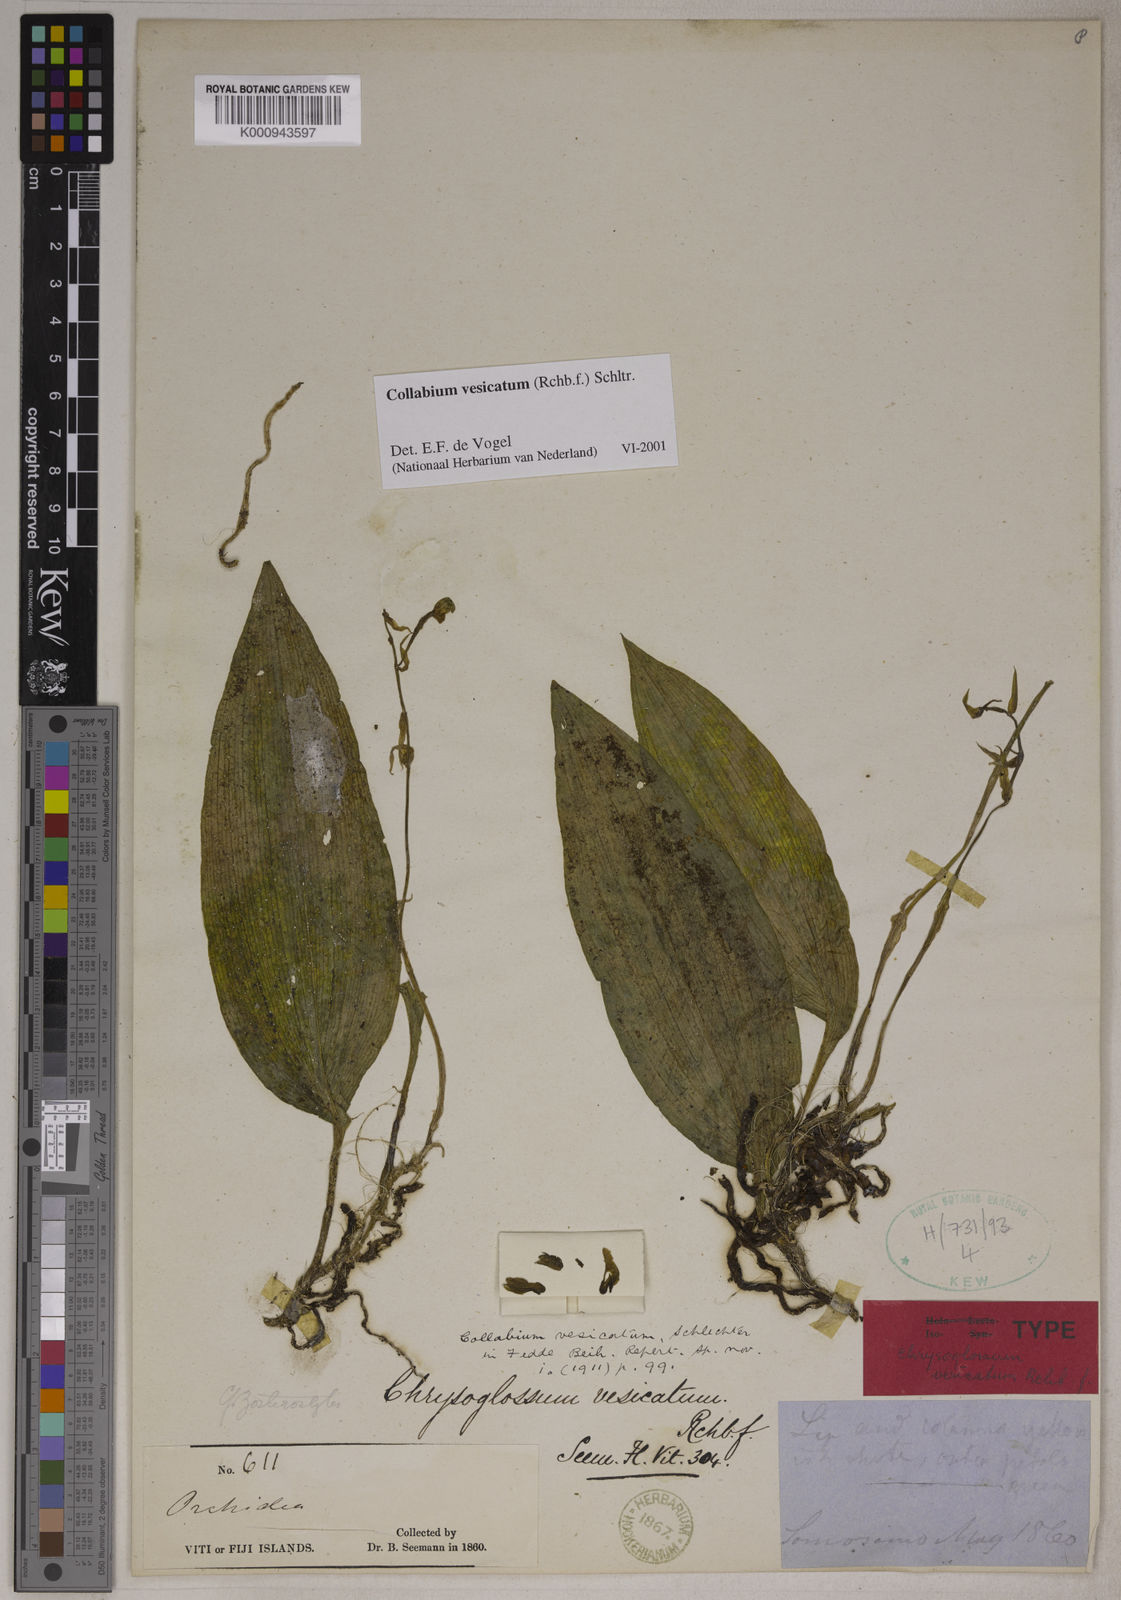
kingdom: Plantae
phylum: Tracheophyta
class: Liliopsida
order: Asparagales
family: Orchidaceae
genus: Collabium
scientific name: Collabium vesicatum
